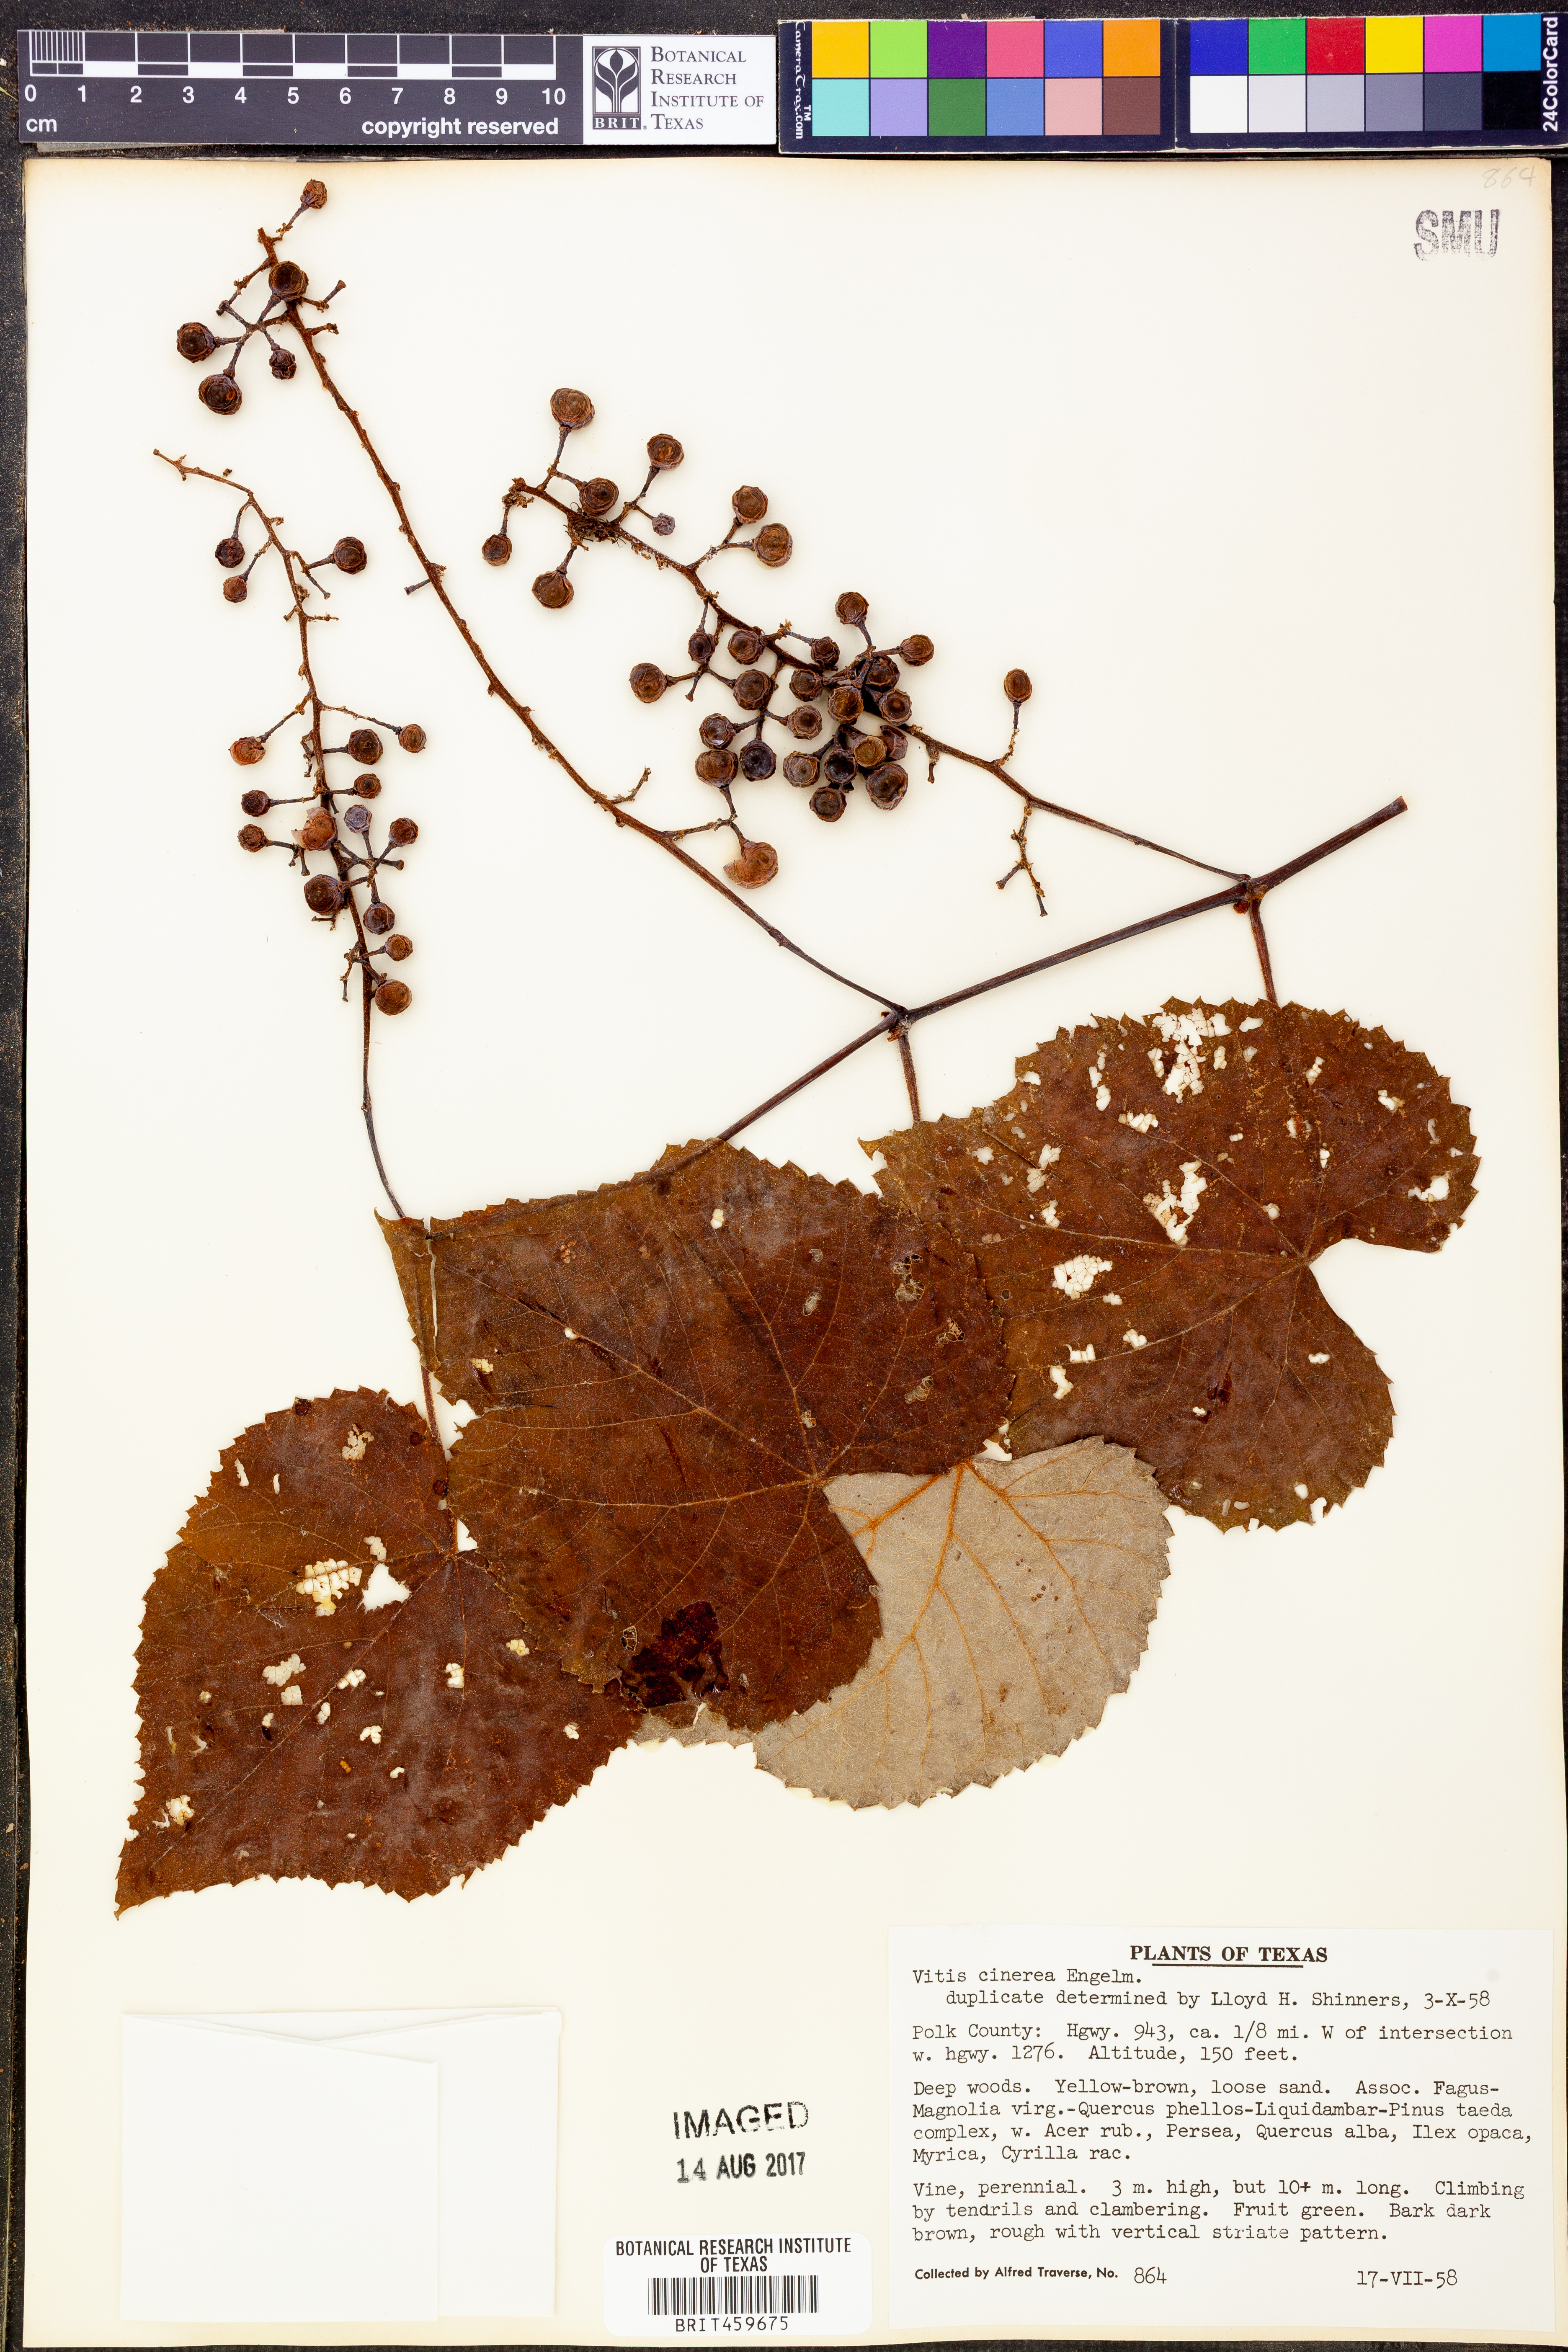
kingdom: Plantae
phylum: Tracheophyta
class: Magnoliopsida
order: Vitales
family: Vitaceae
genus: Vitis
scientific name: Vitis cinerea
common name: Ashy grape
